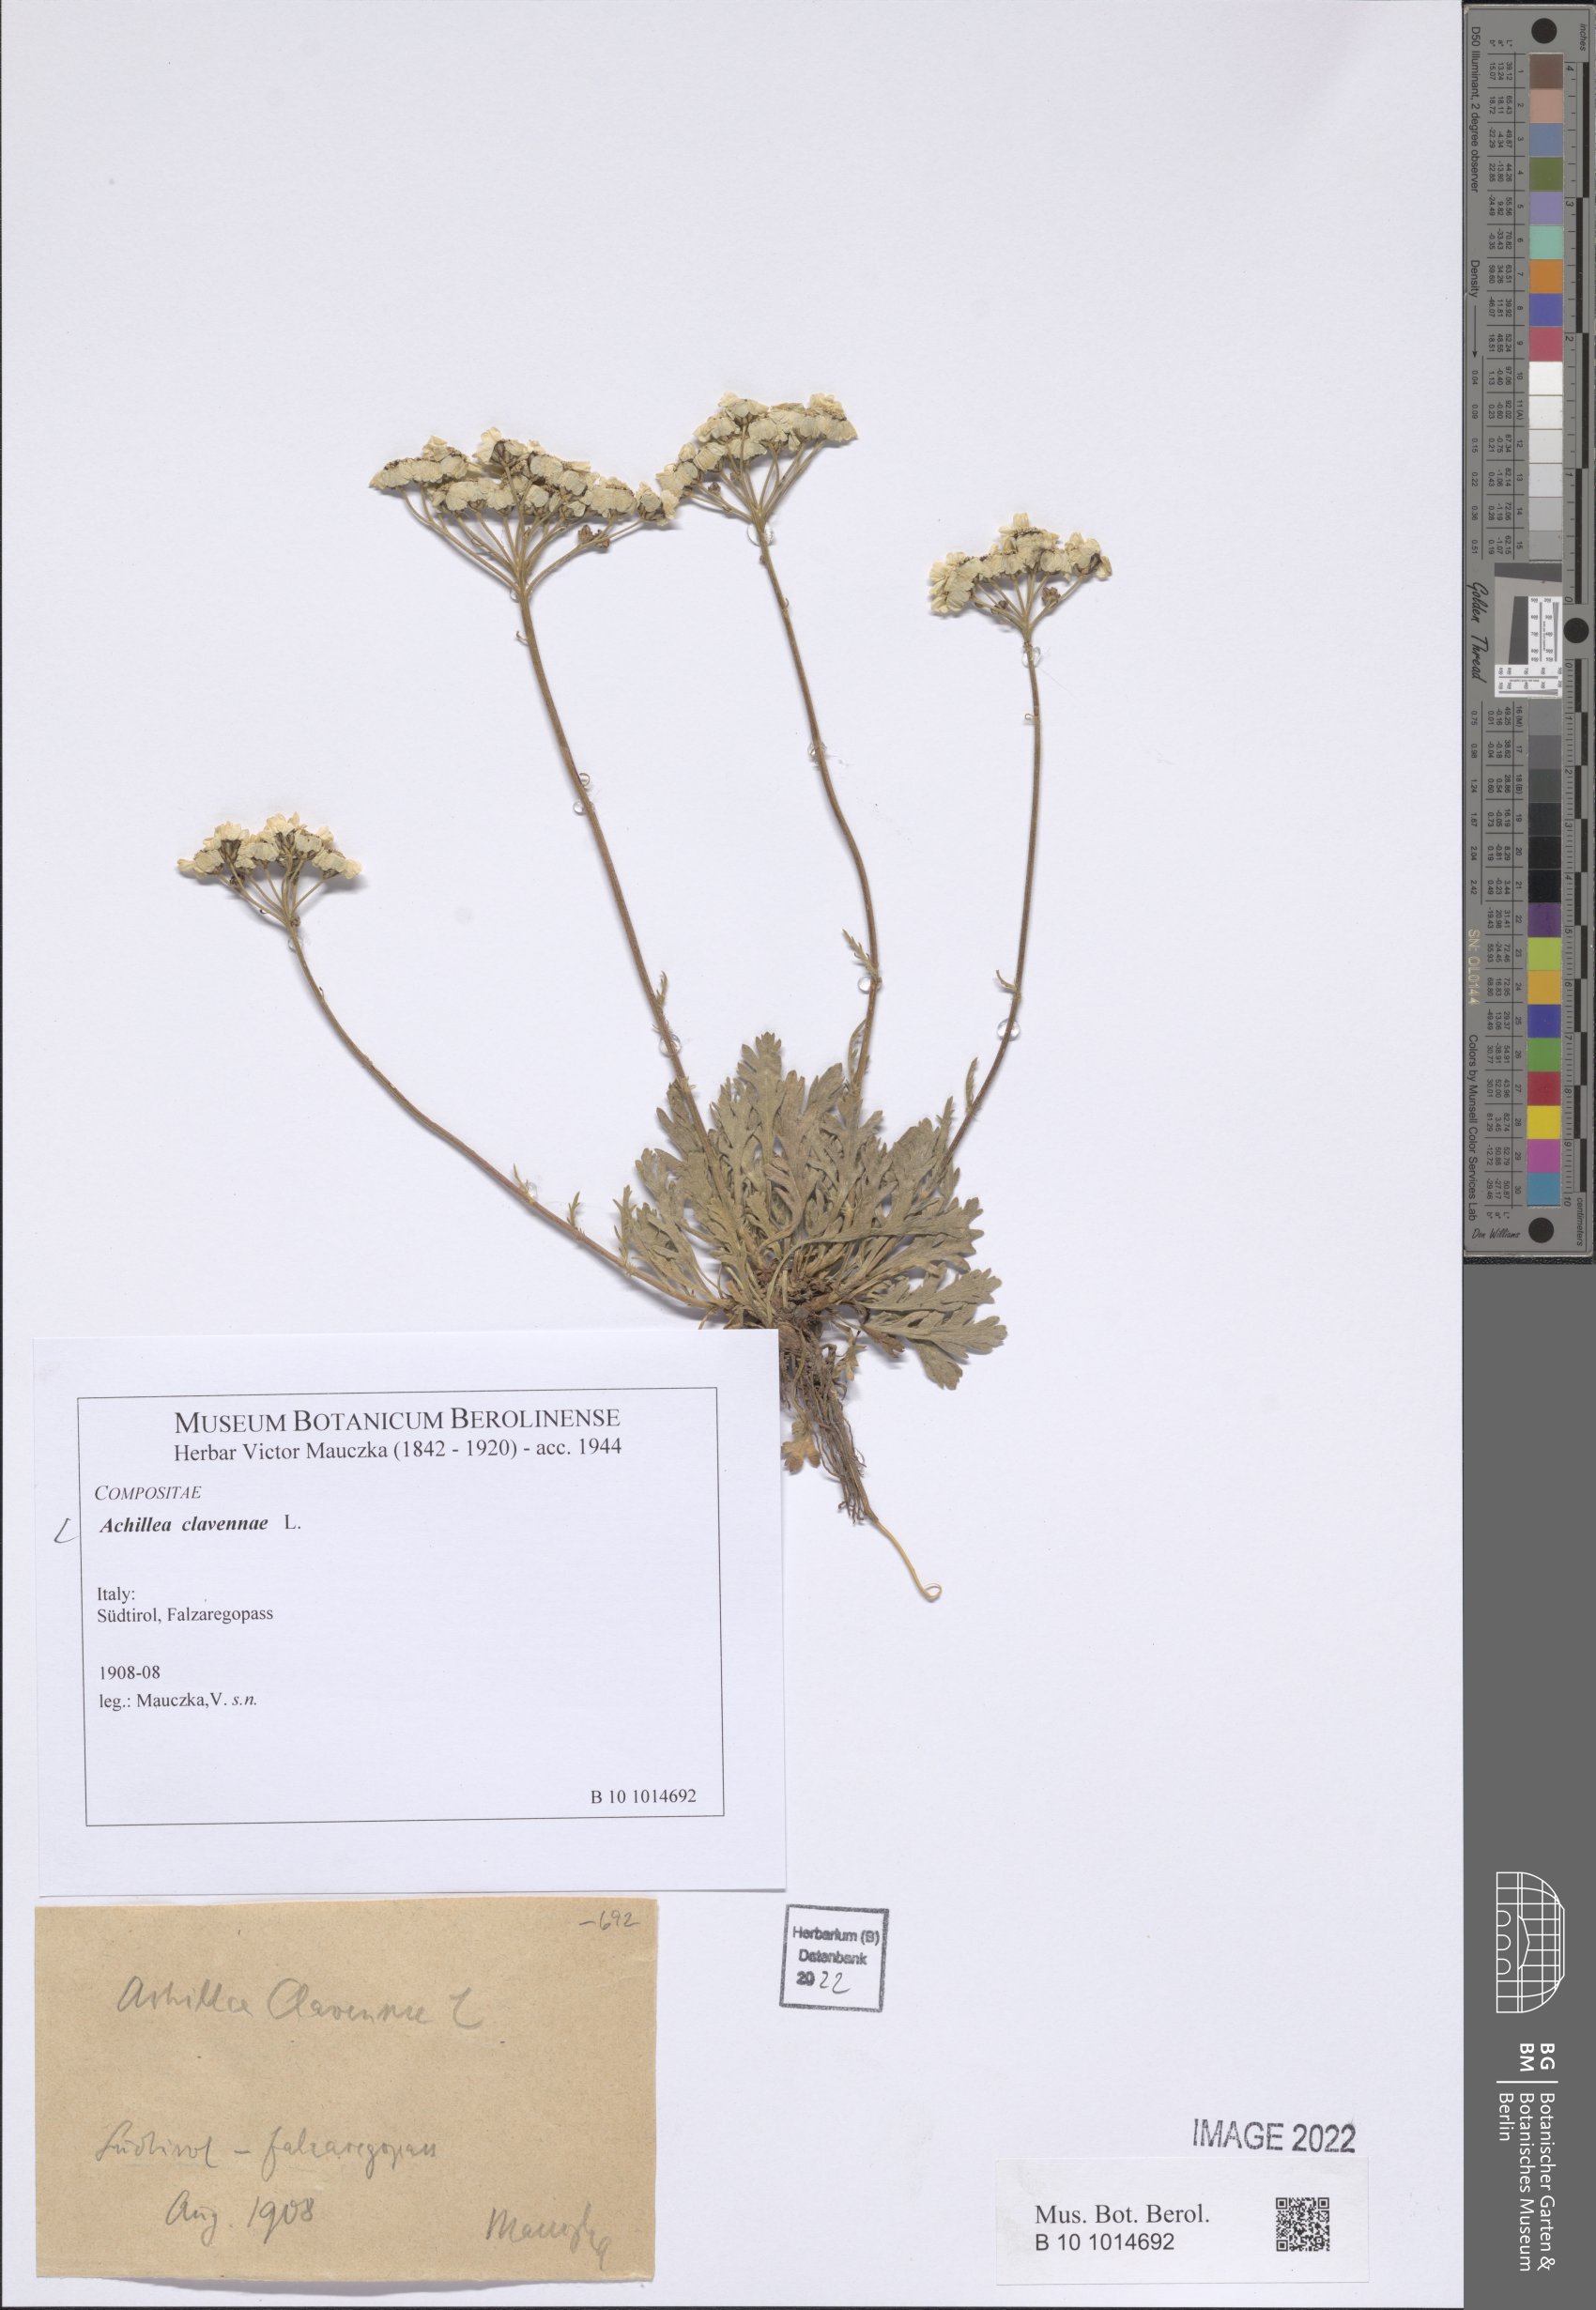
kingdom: Plantae
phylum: Tracheophyta
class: Magnoliopsida
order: Asterales
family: Asteraceae
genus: Achillea
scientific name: Achillea clavennae
